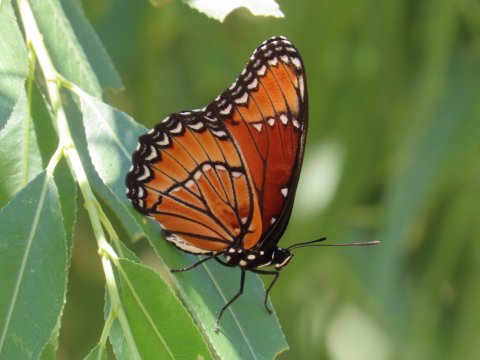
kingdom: Animalia
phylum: Arthropoda
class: Insecta
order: Lepidoptera
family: Nymphalidae
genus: Limenitis
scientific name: Limenitis archippus
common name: Viceroy
